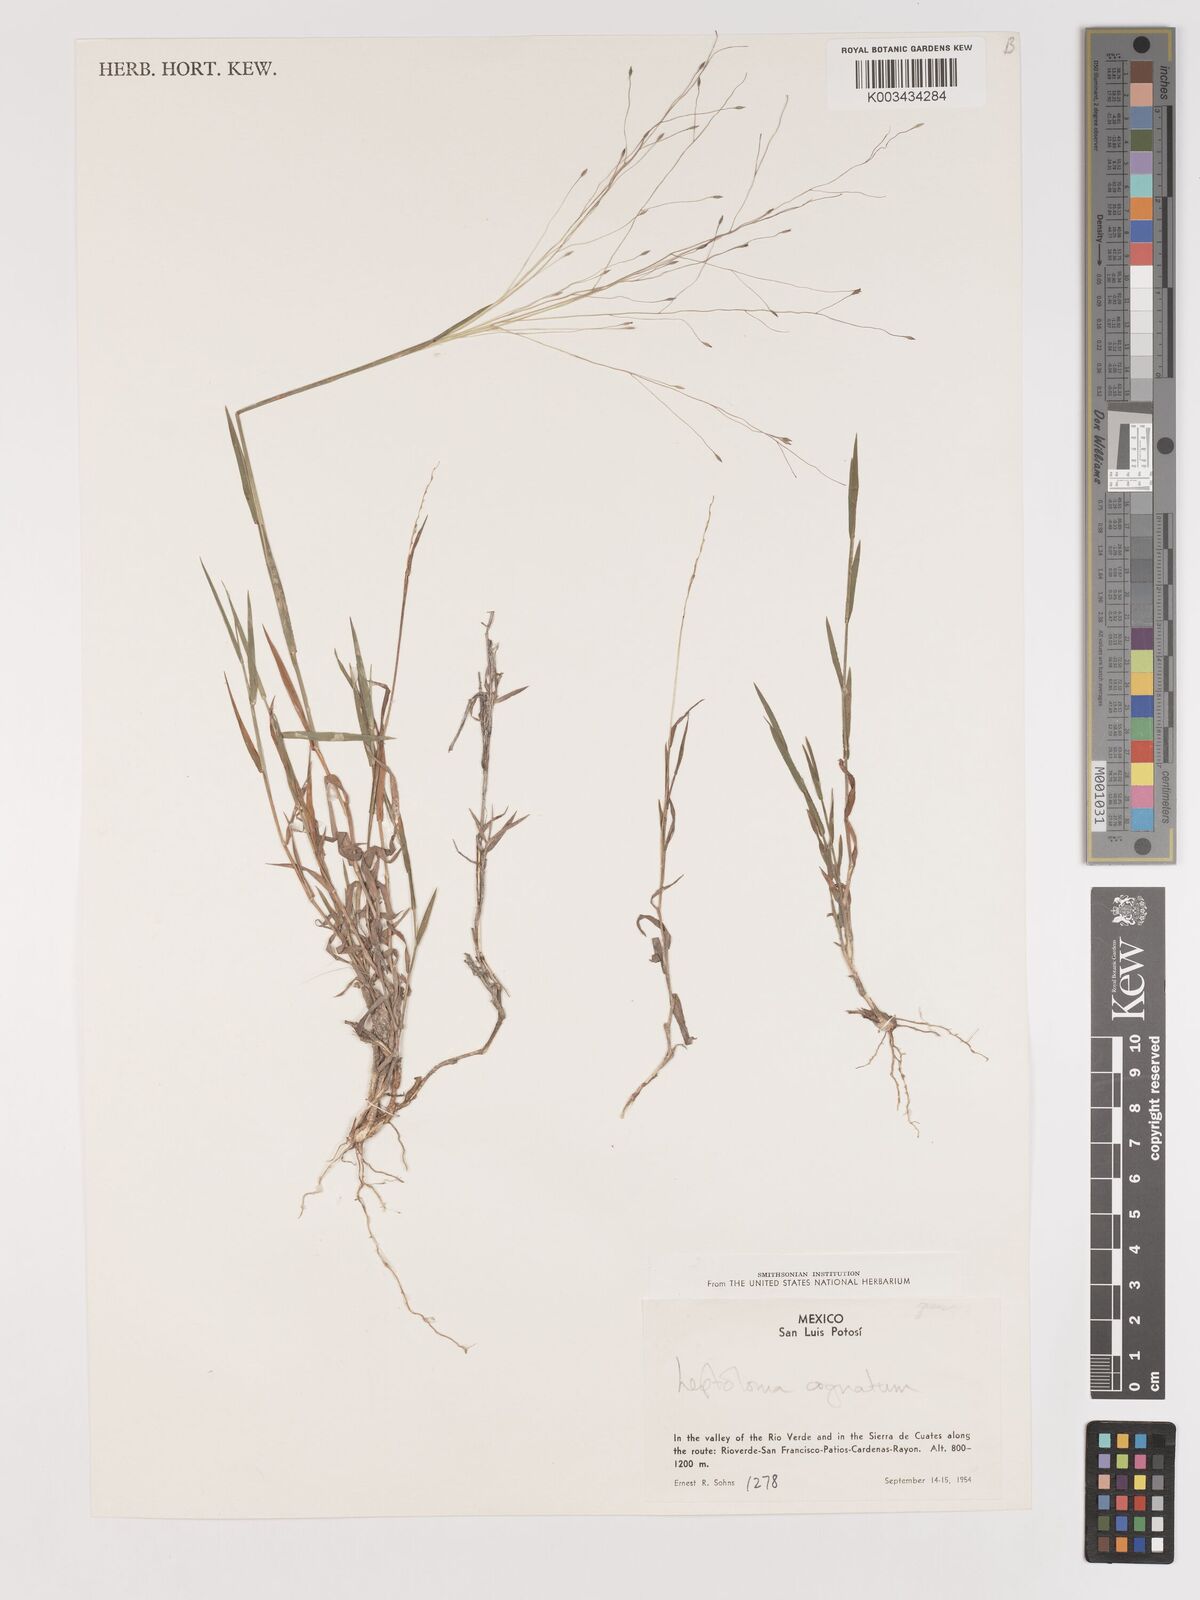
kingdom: Plantae
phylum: Tracheophyta
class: Liliopsida
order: Poales
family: Poaceae
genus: Digitaria
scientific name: Digitaria cognata
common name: Fall witchgrass
